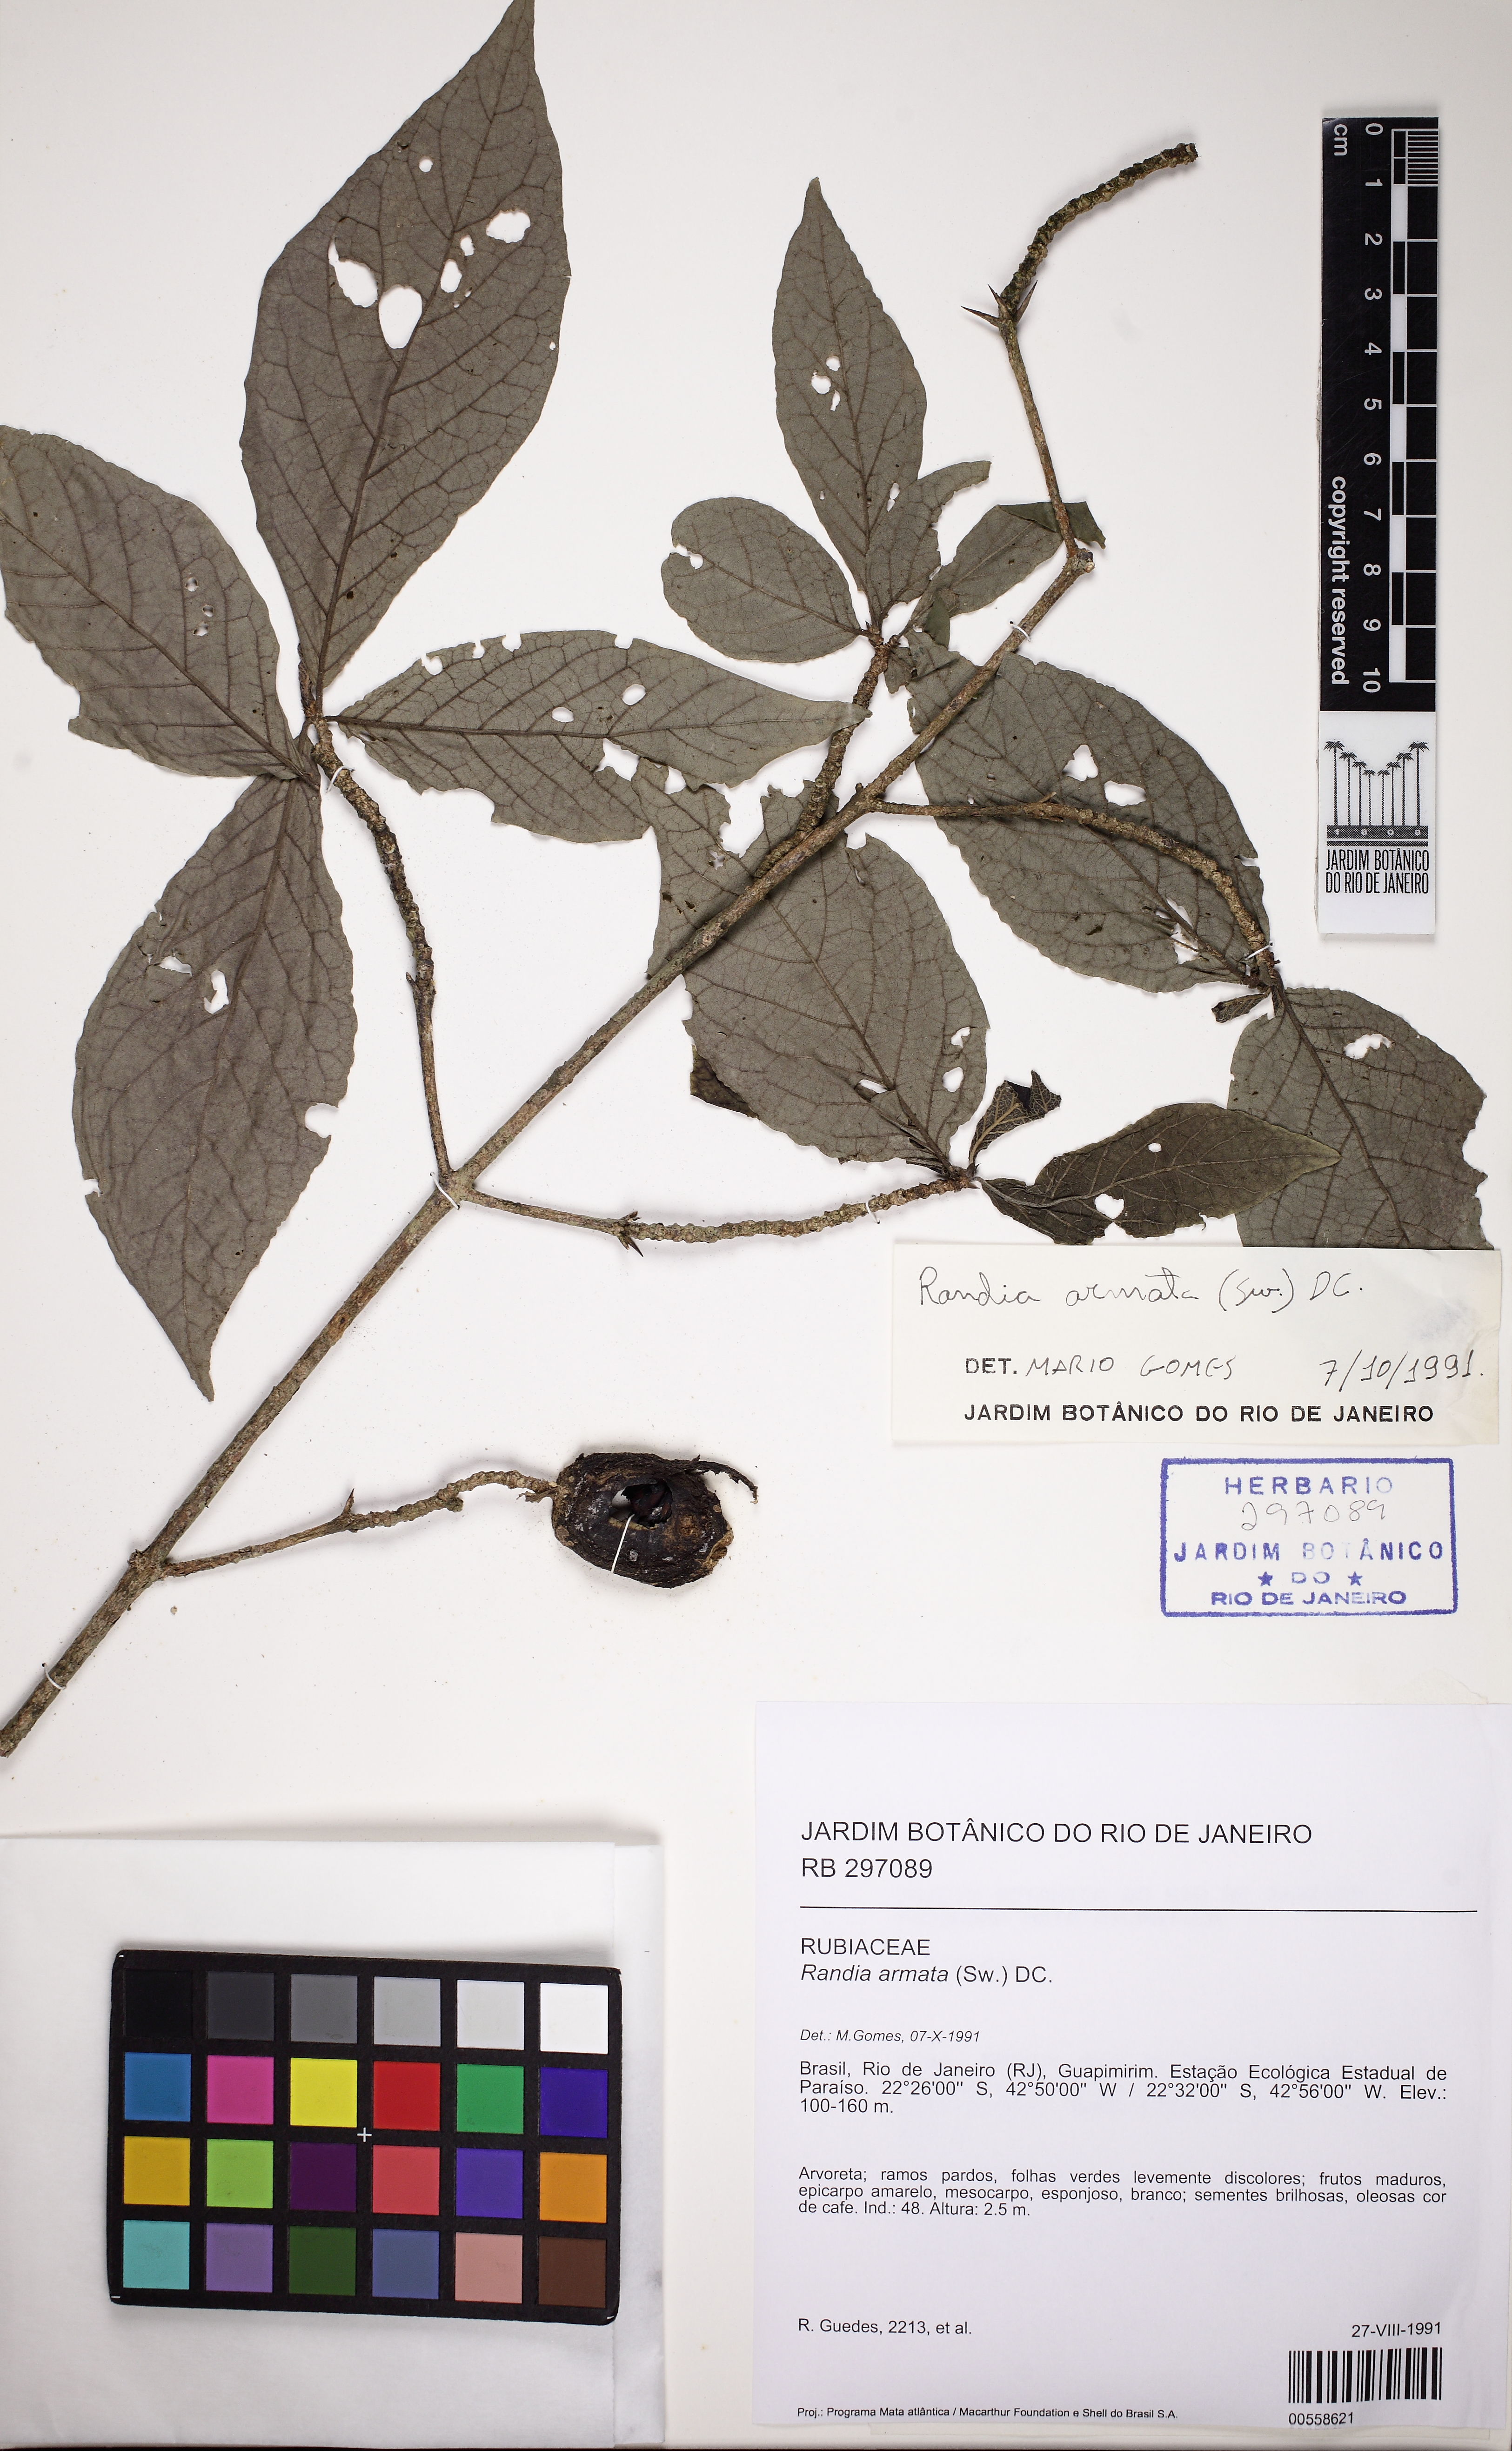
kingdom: Plantae
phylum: Tracheophyta
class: Magnoliopsida
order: Gentianales
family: Rubiaceae
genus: Randia
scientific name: Randia armata
